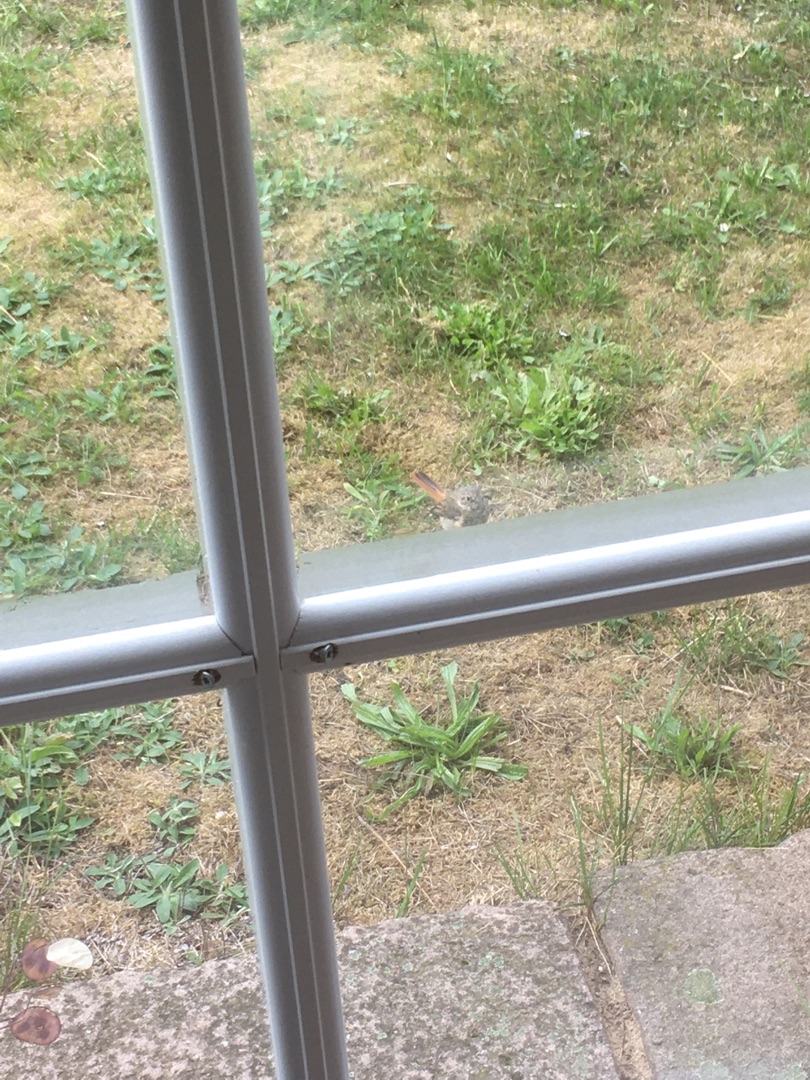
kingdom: Animalia
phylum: Chordata
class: Aves
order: Passeriformes
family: Muscicapidae
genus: Phoenicurus
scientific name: Phoenicurus phoenicurus
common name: Rødstjert
